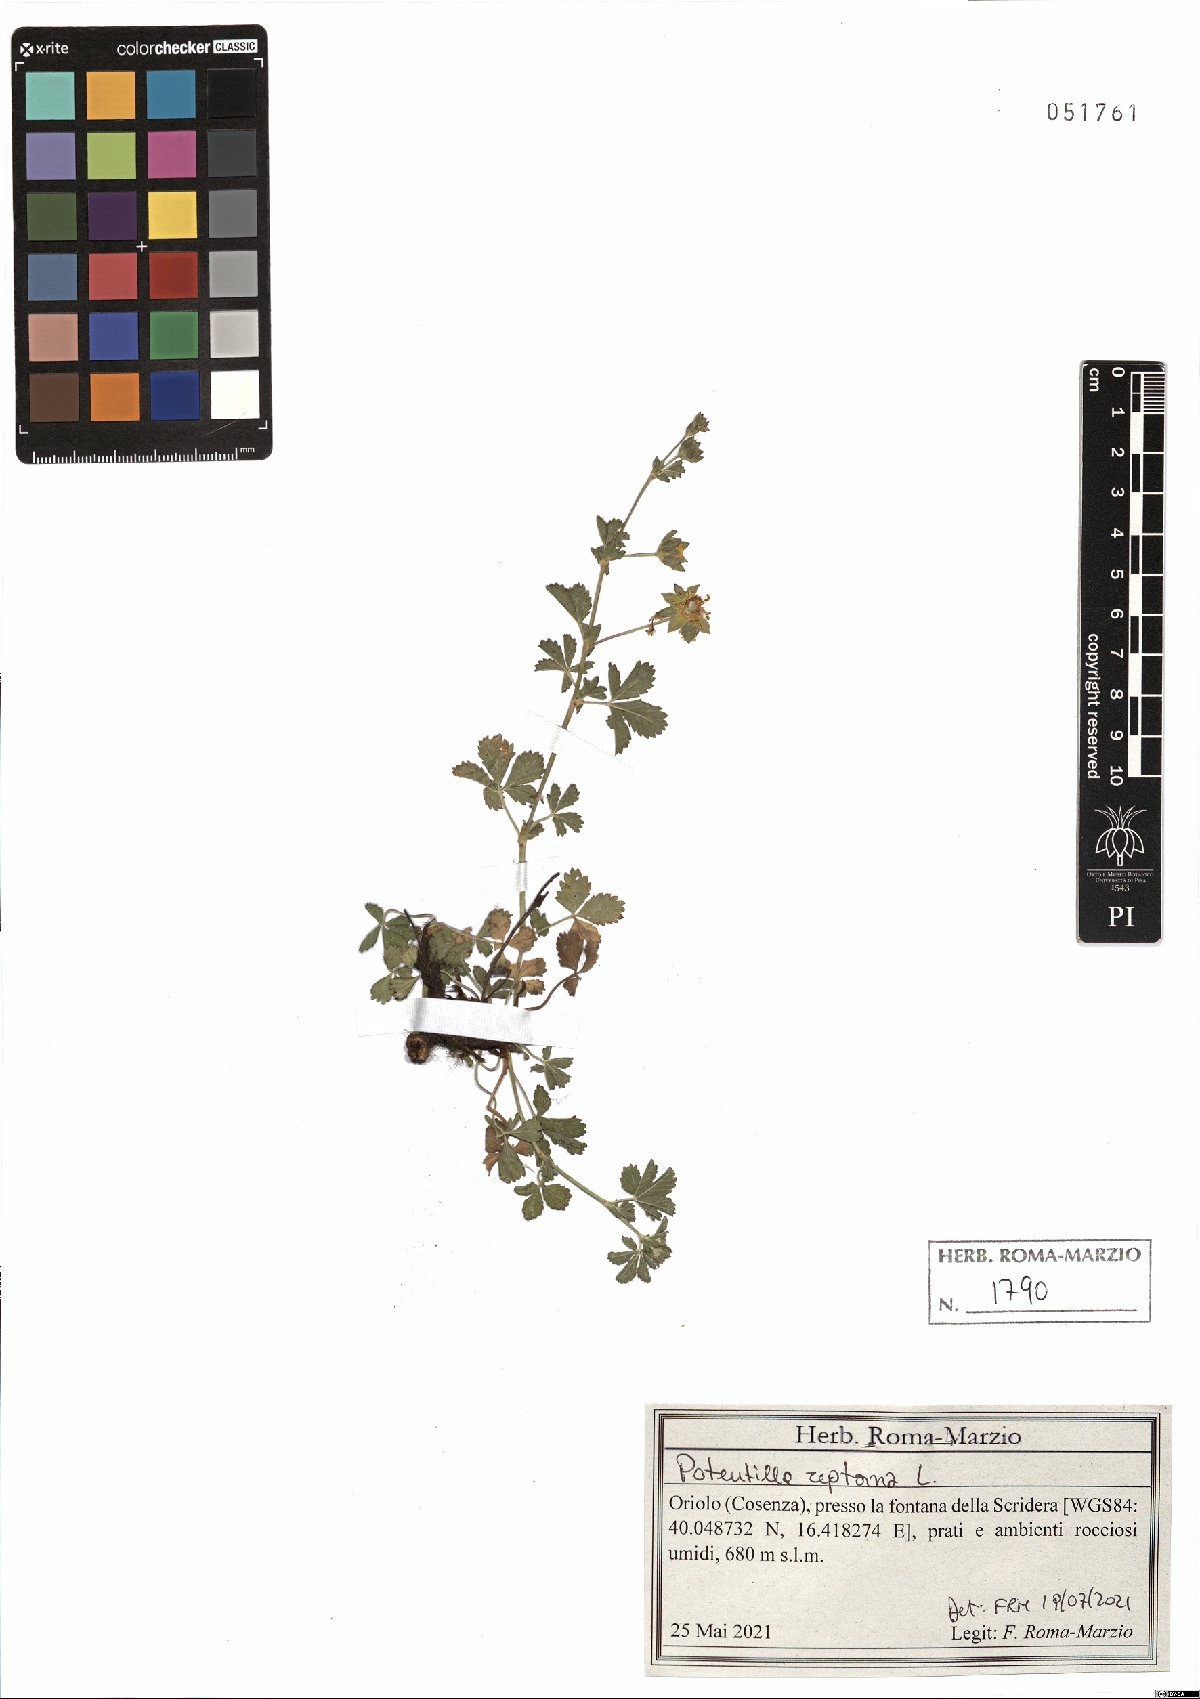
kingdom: Plantae
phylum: Tracheophyta
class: Magnoliopsida
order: Rosales
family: Rosaceae
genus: Potentilla
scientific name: Potentilla reptans
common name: Creeping cinquefoil
